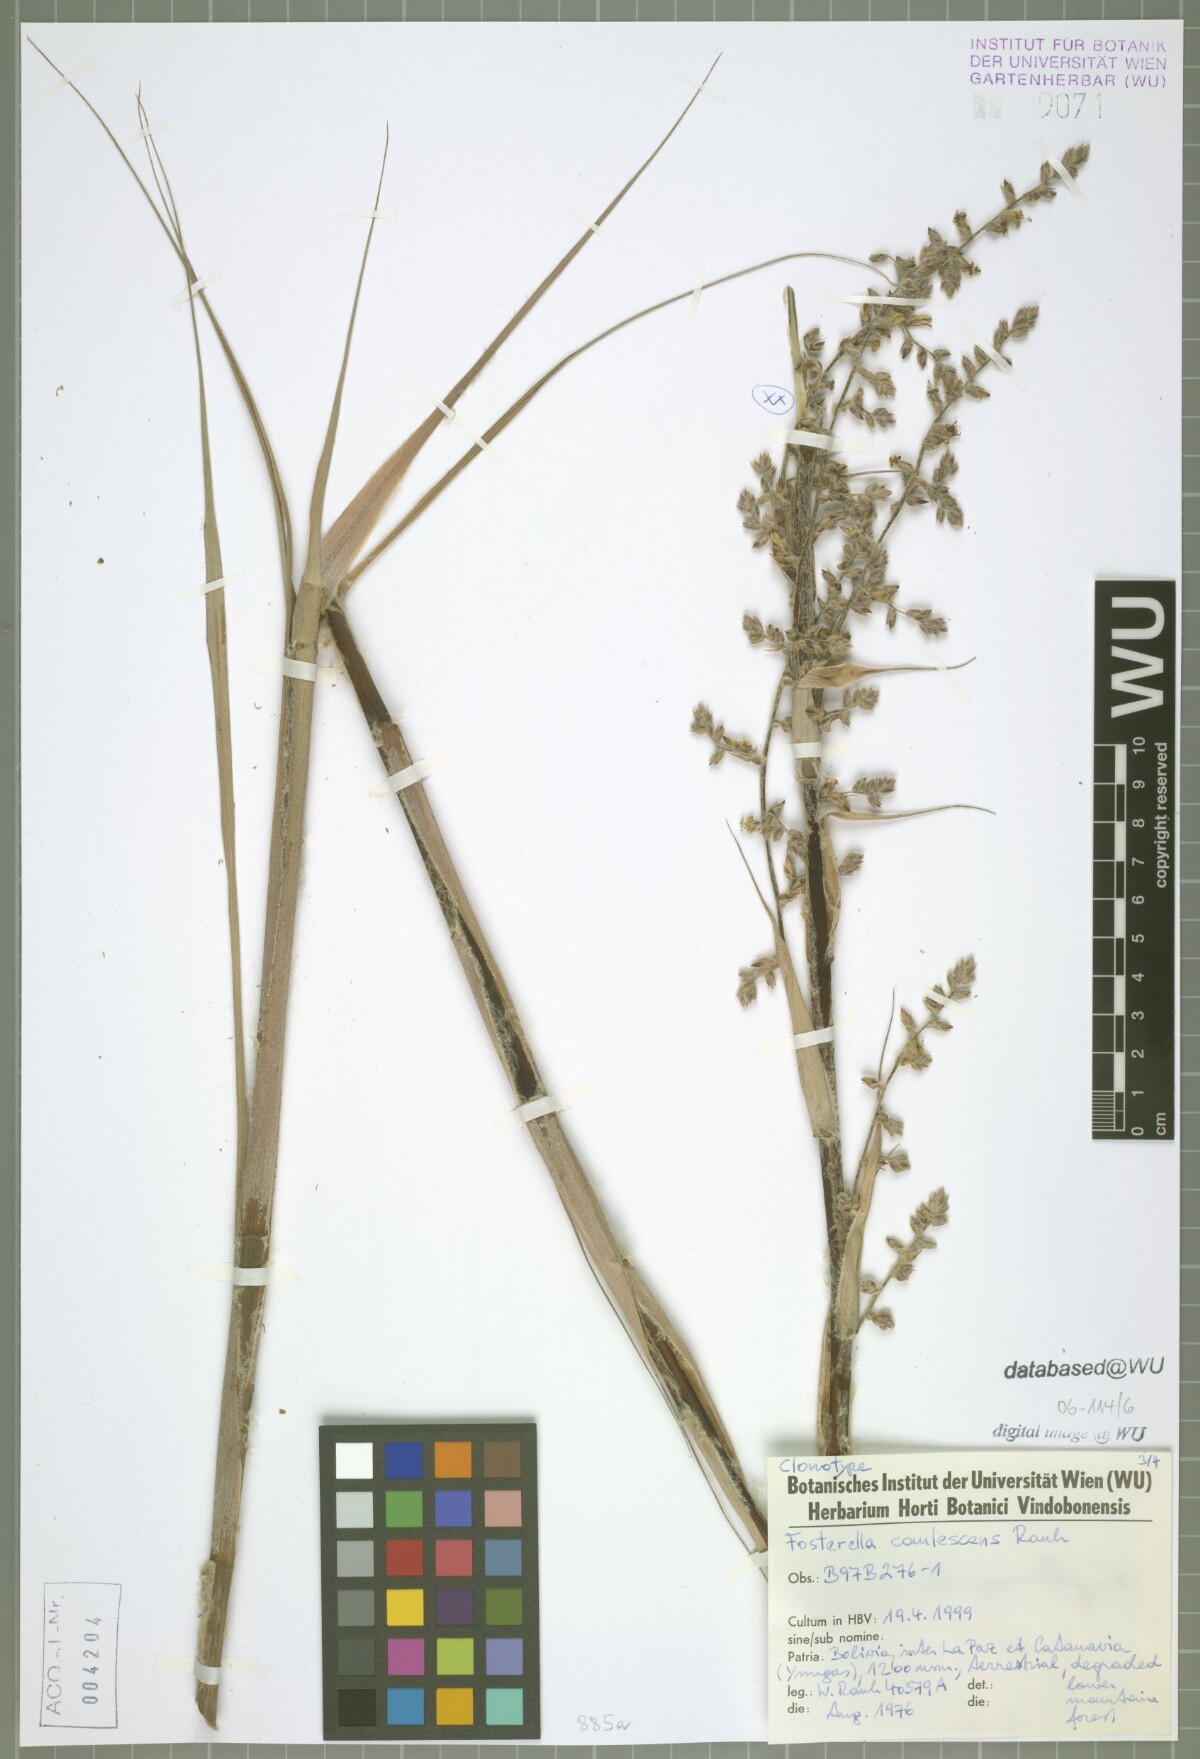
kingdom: Plantae
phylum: Tracheophyta
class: Liliopsida
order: Poales
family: Bromeliaceae
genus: Fosterella
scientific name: Fosterella caulescens
